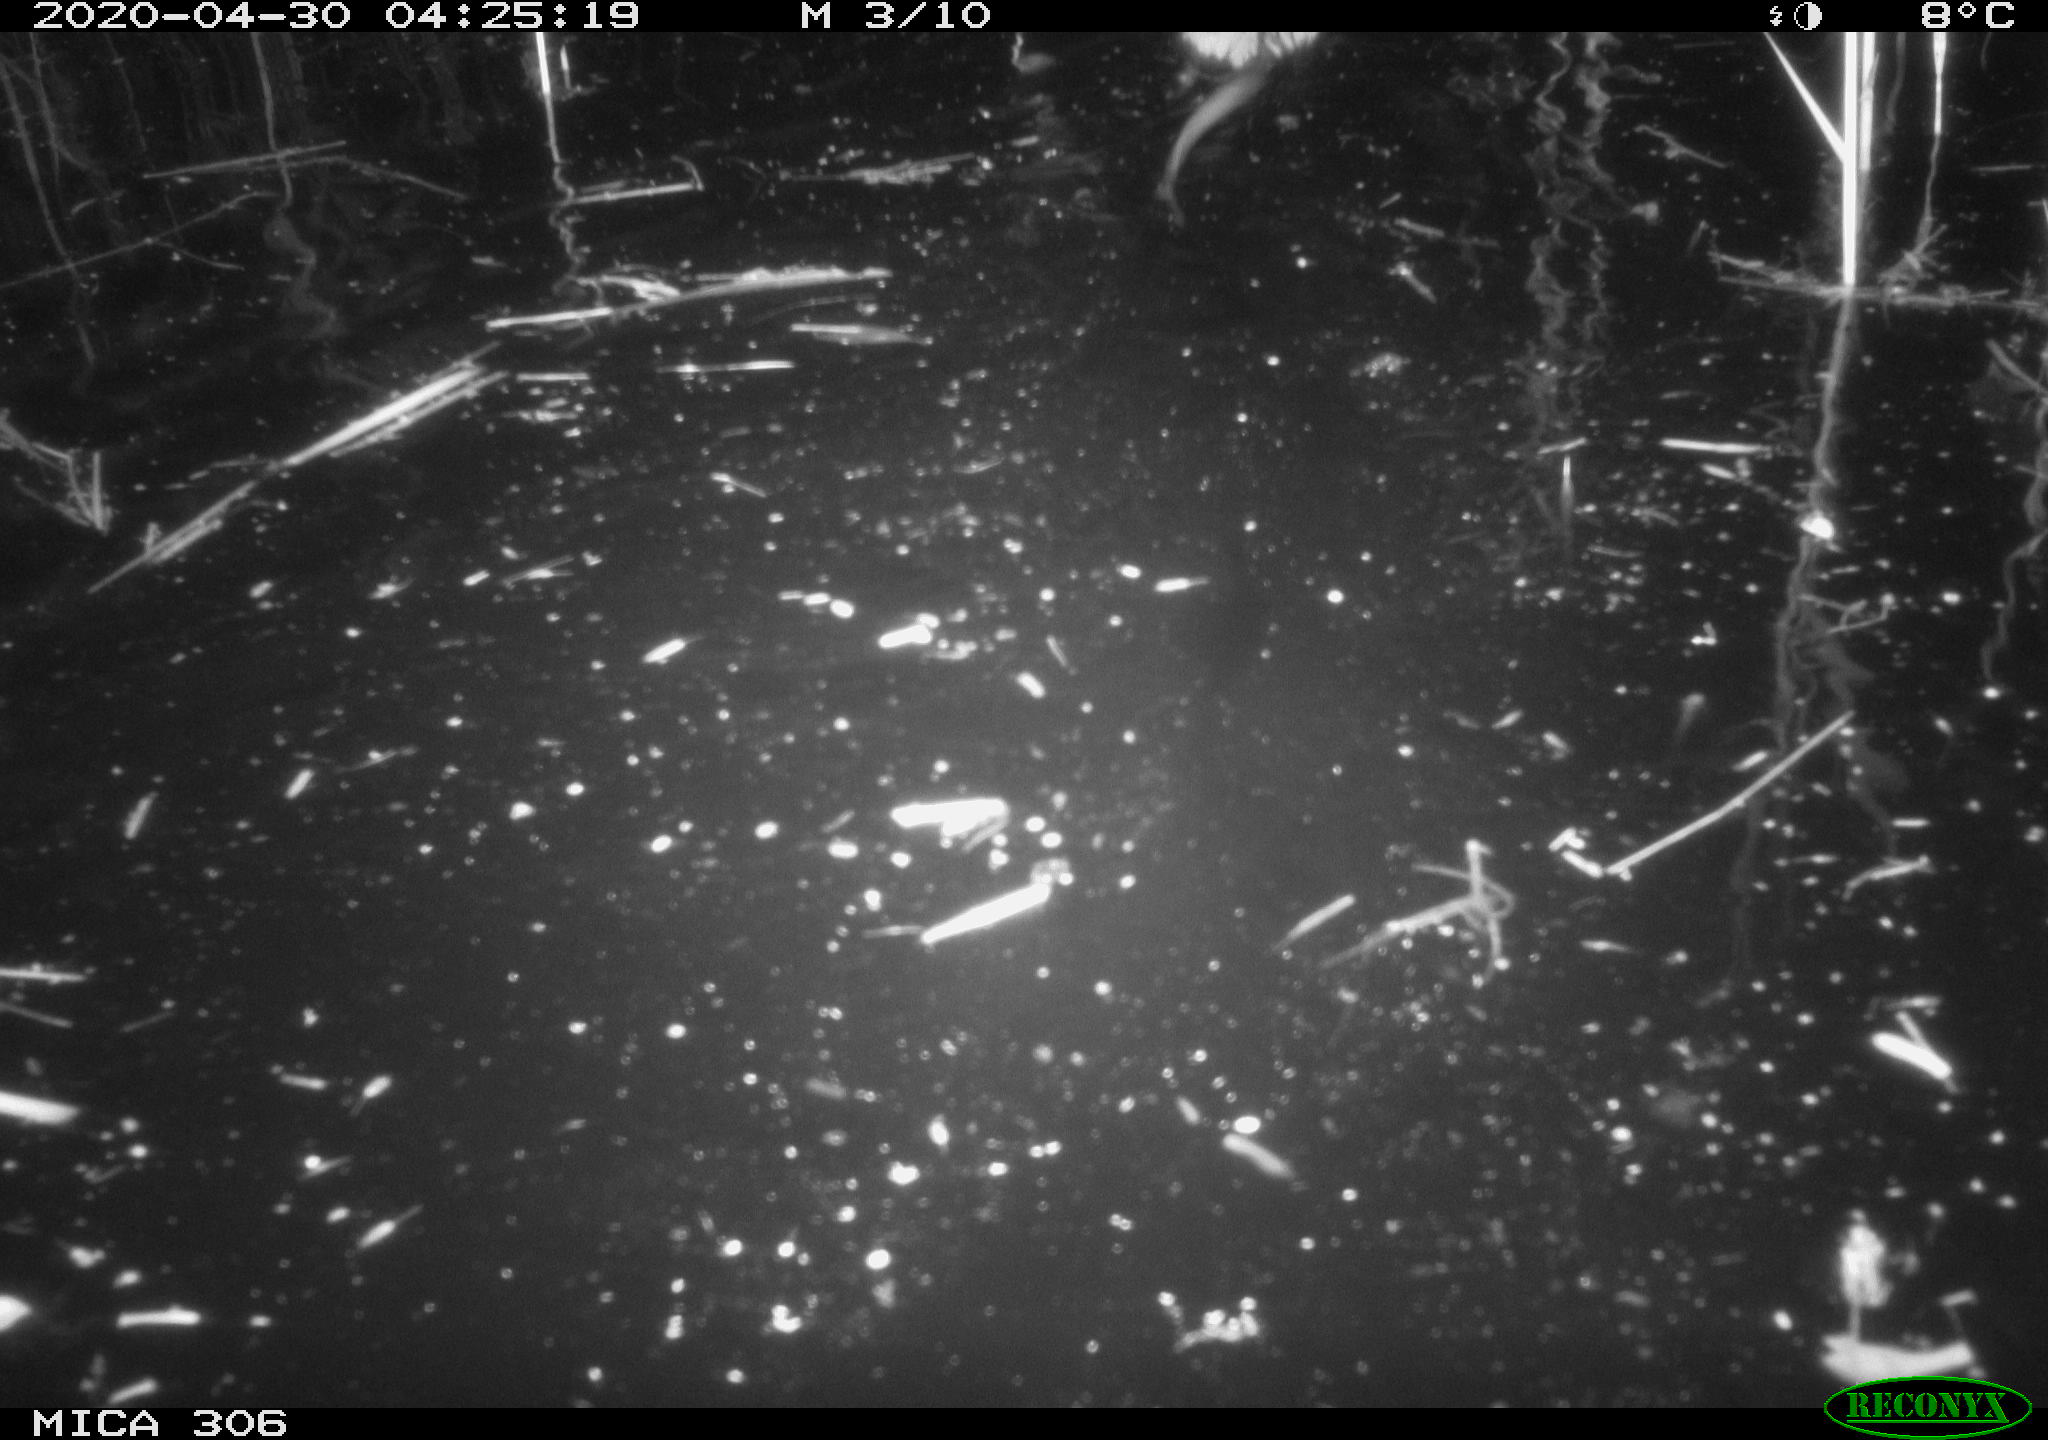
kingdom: Animalia
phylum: Chordata
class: Mammalia
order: Rodentia
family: Cricetidae
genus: Ondatra
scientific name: Ondatra zibethicus
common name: Muskrat
